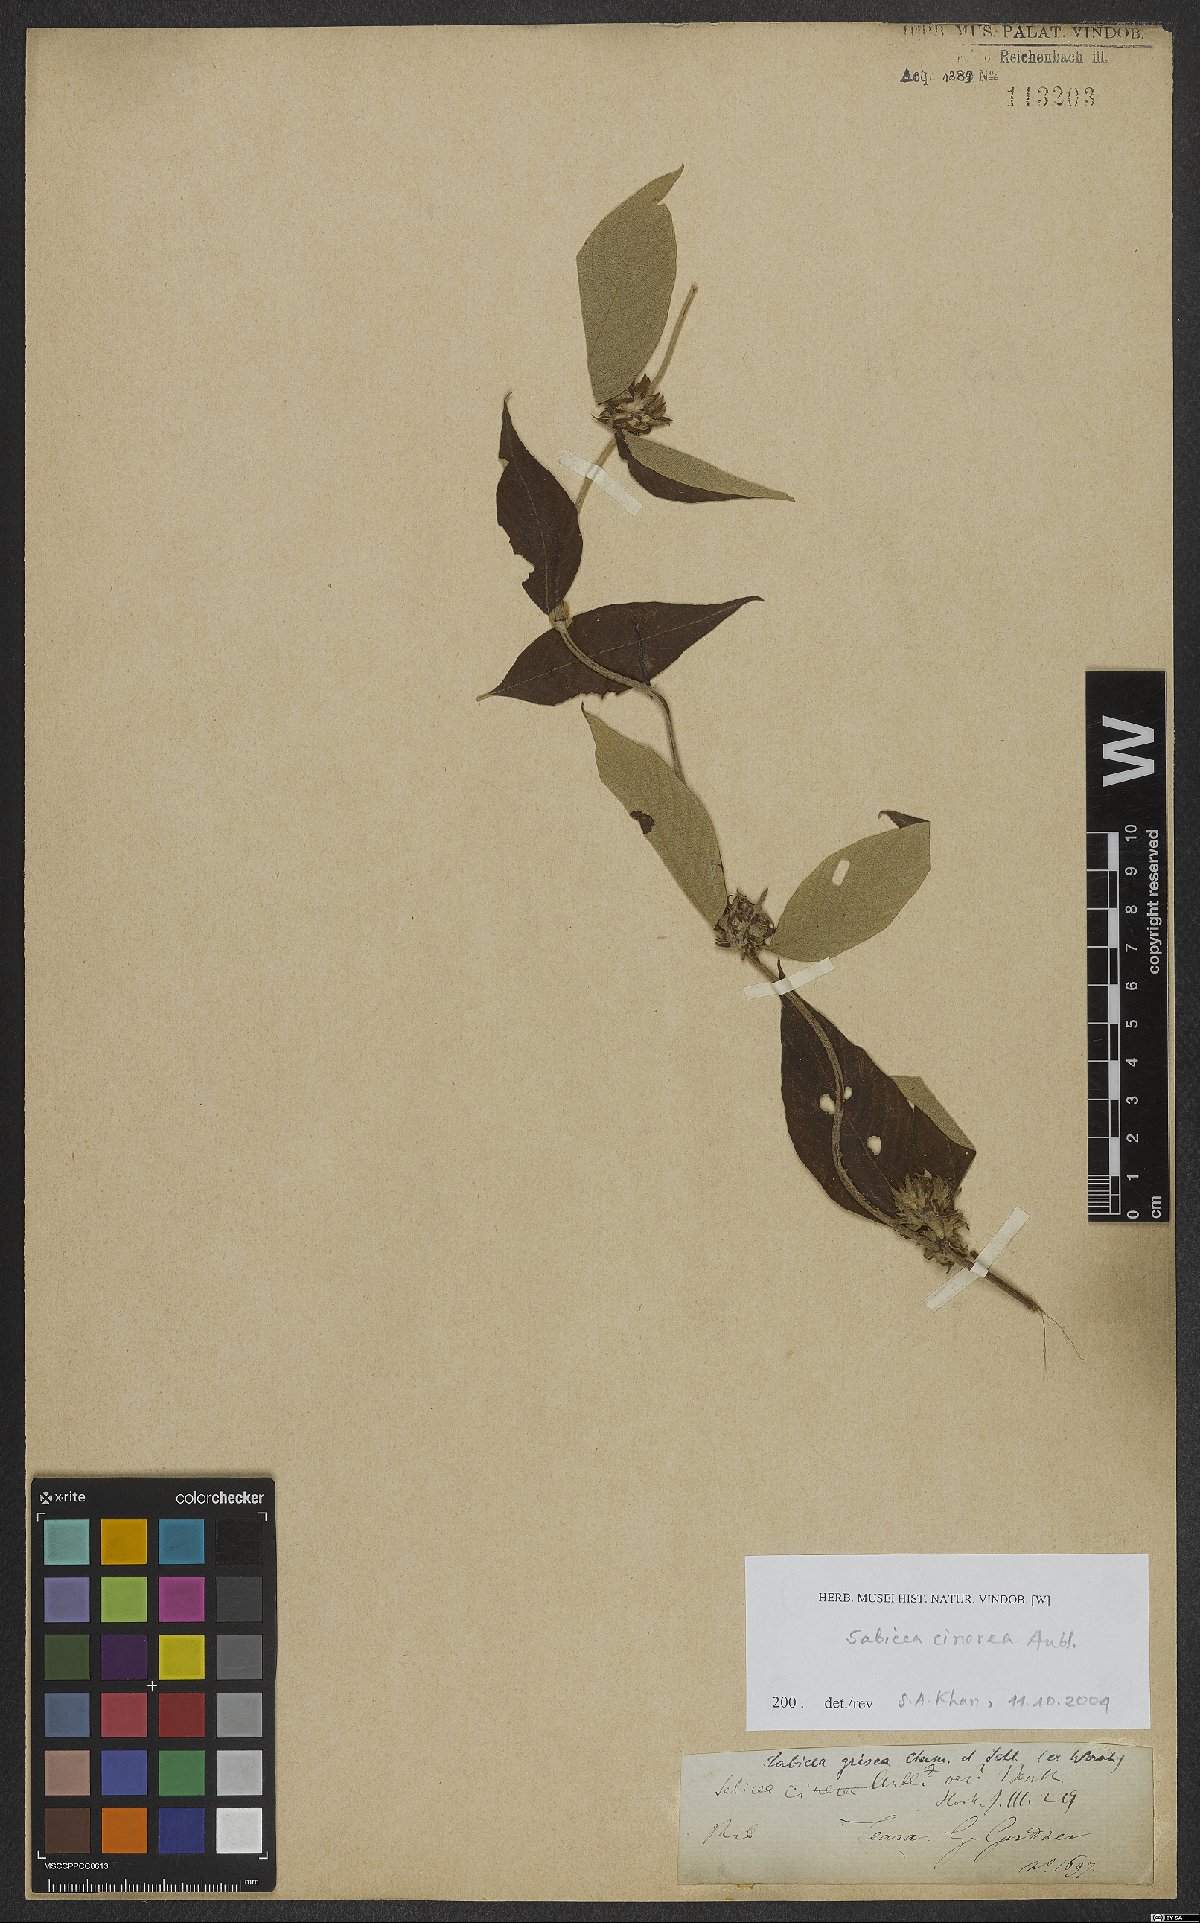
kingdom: Plantae
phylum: Tracheophyta
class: Magnoliopsida
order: Gentianales
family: Rubiaceae
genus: Sabicea
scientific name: Sabicea cinerea
